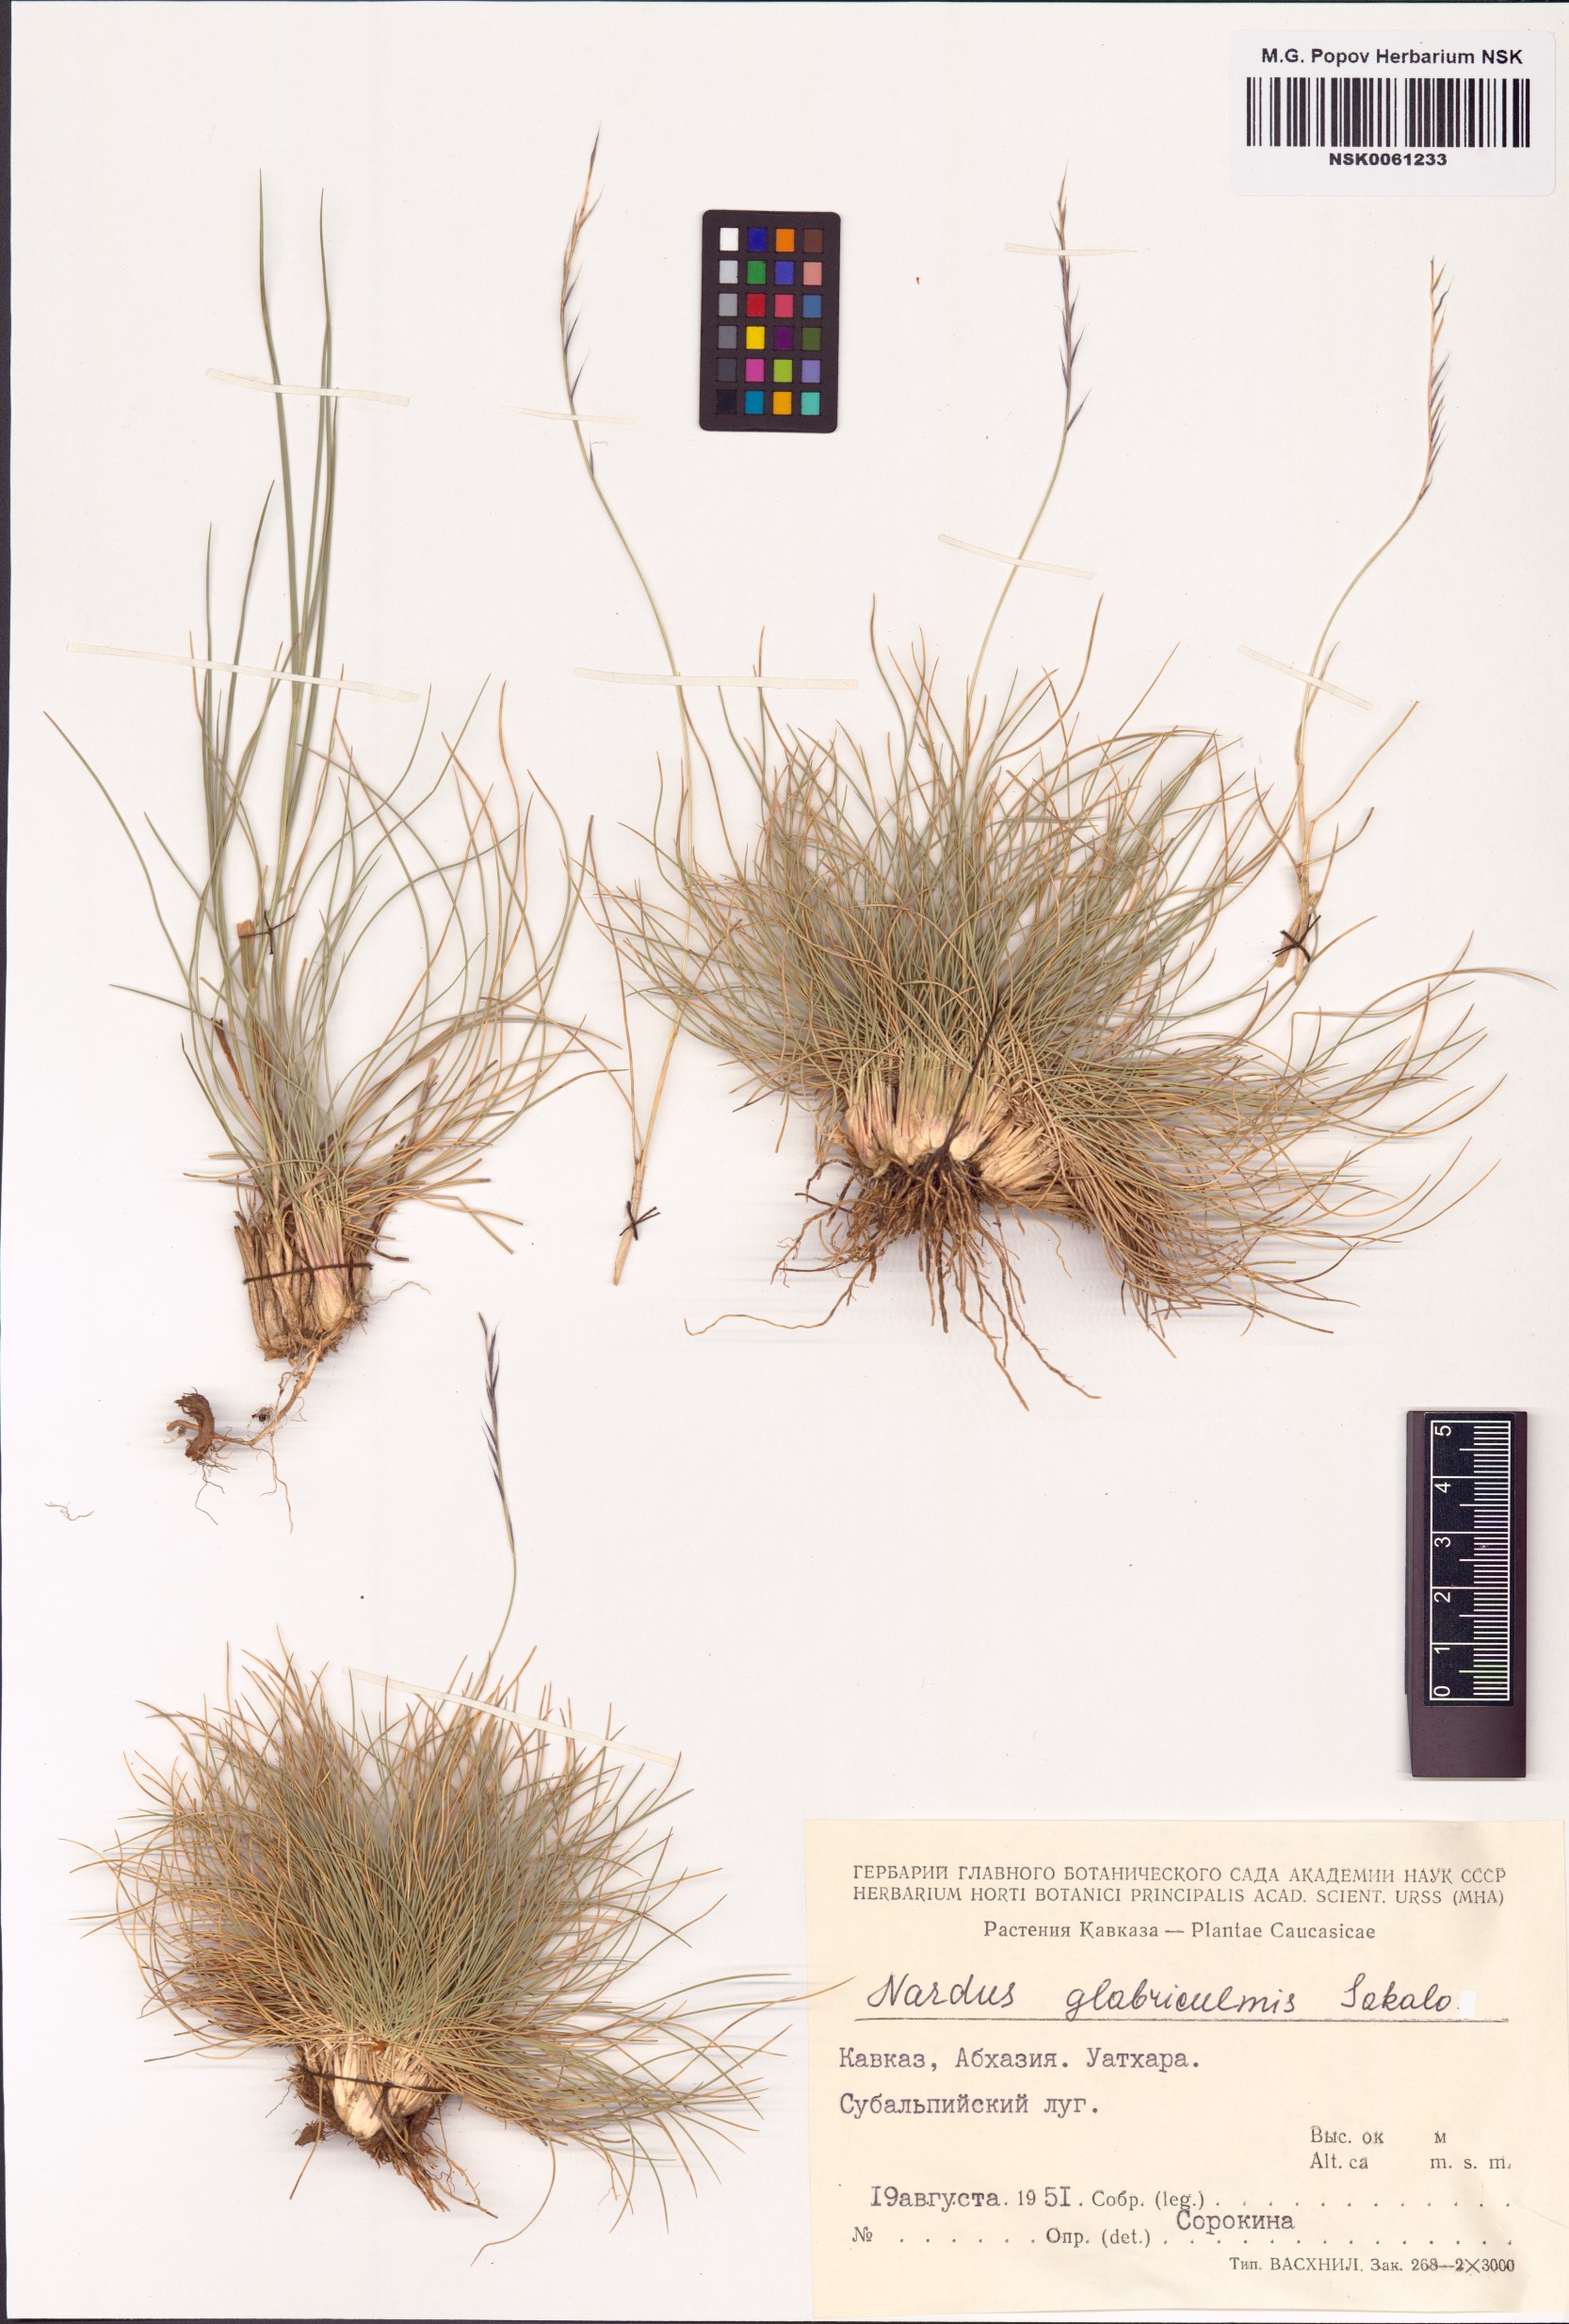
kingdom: Plantae
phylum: Tracheophyta
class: Liliopsida
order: Poales
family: Poaceae
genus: Nardus
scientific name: Nardus stricta
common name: Mat-grass
